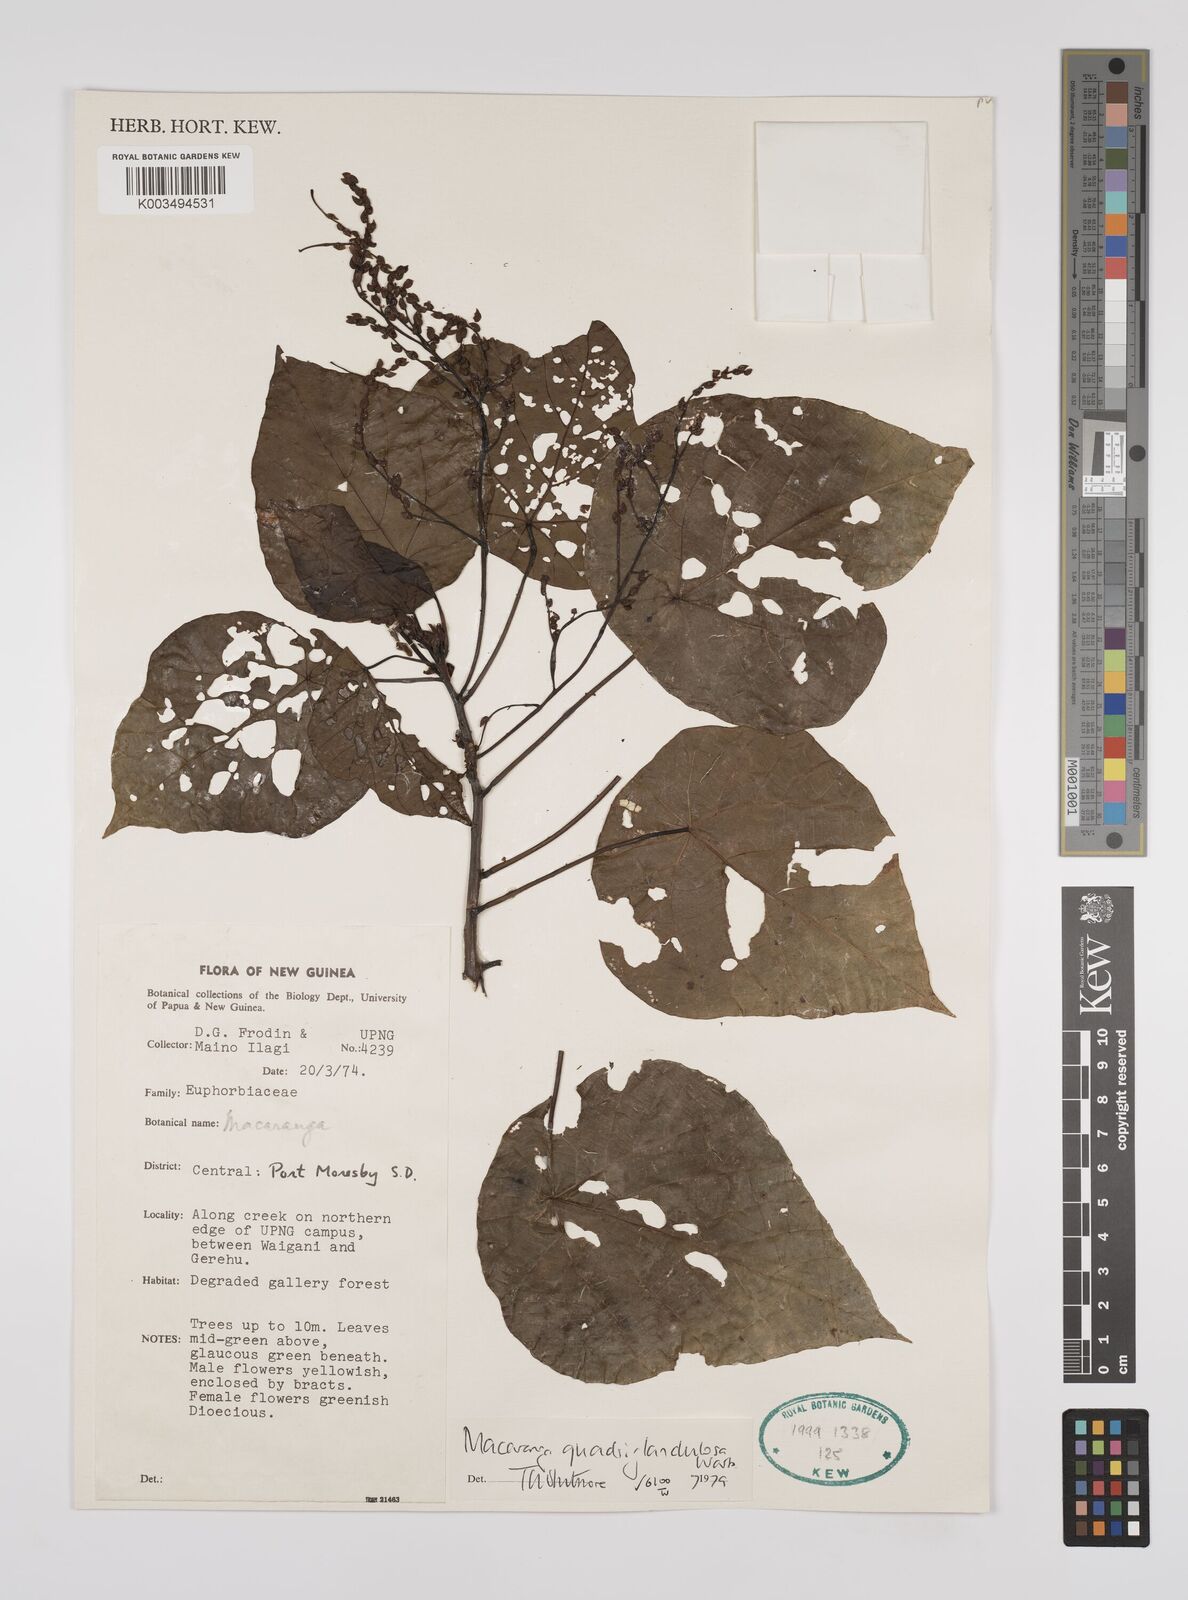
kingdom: Plantae
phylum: Tracheophyta
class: Magnoliopsida
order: Malpighiales
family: Euphorbiaceae
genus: Macaranga
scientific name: Macaranga quadriglandulosa
